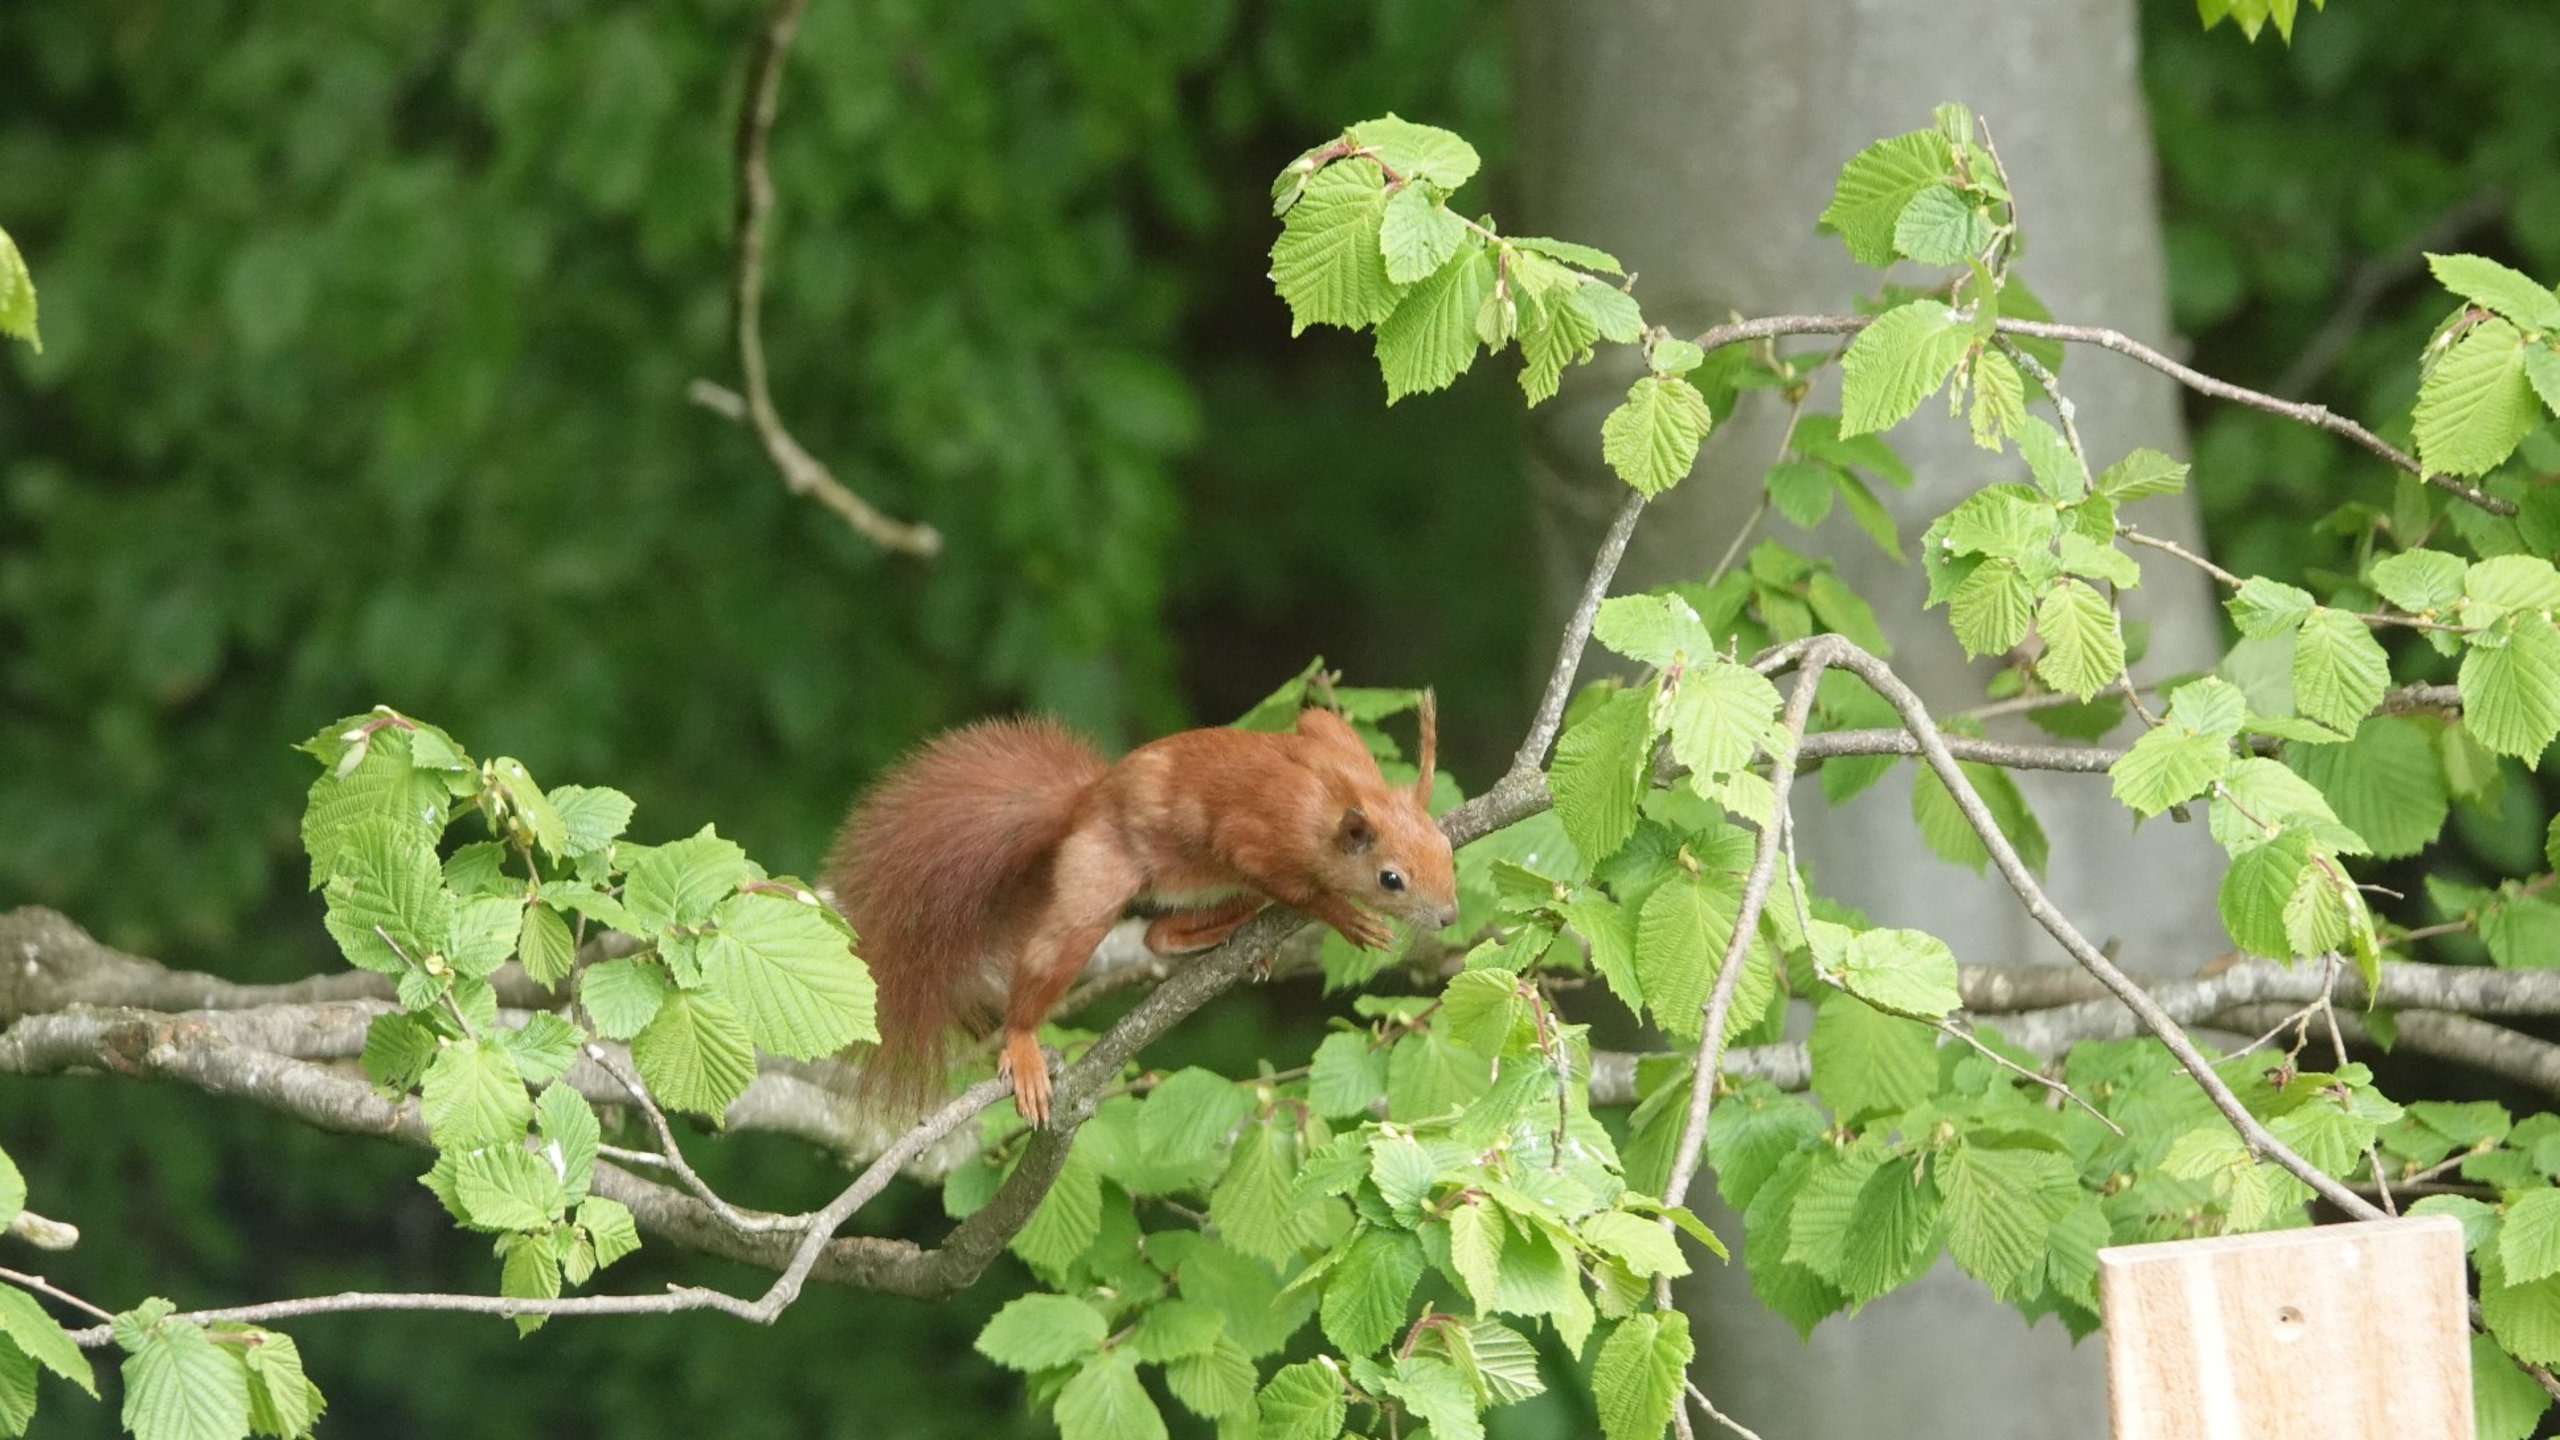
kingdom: Animalia
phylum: Chordata
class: Mammalia
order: Rodentia
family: Sciuridae
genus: Sciurus
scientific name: Sciurus vulgaris
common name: Egern
